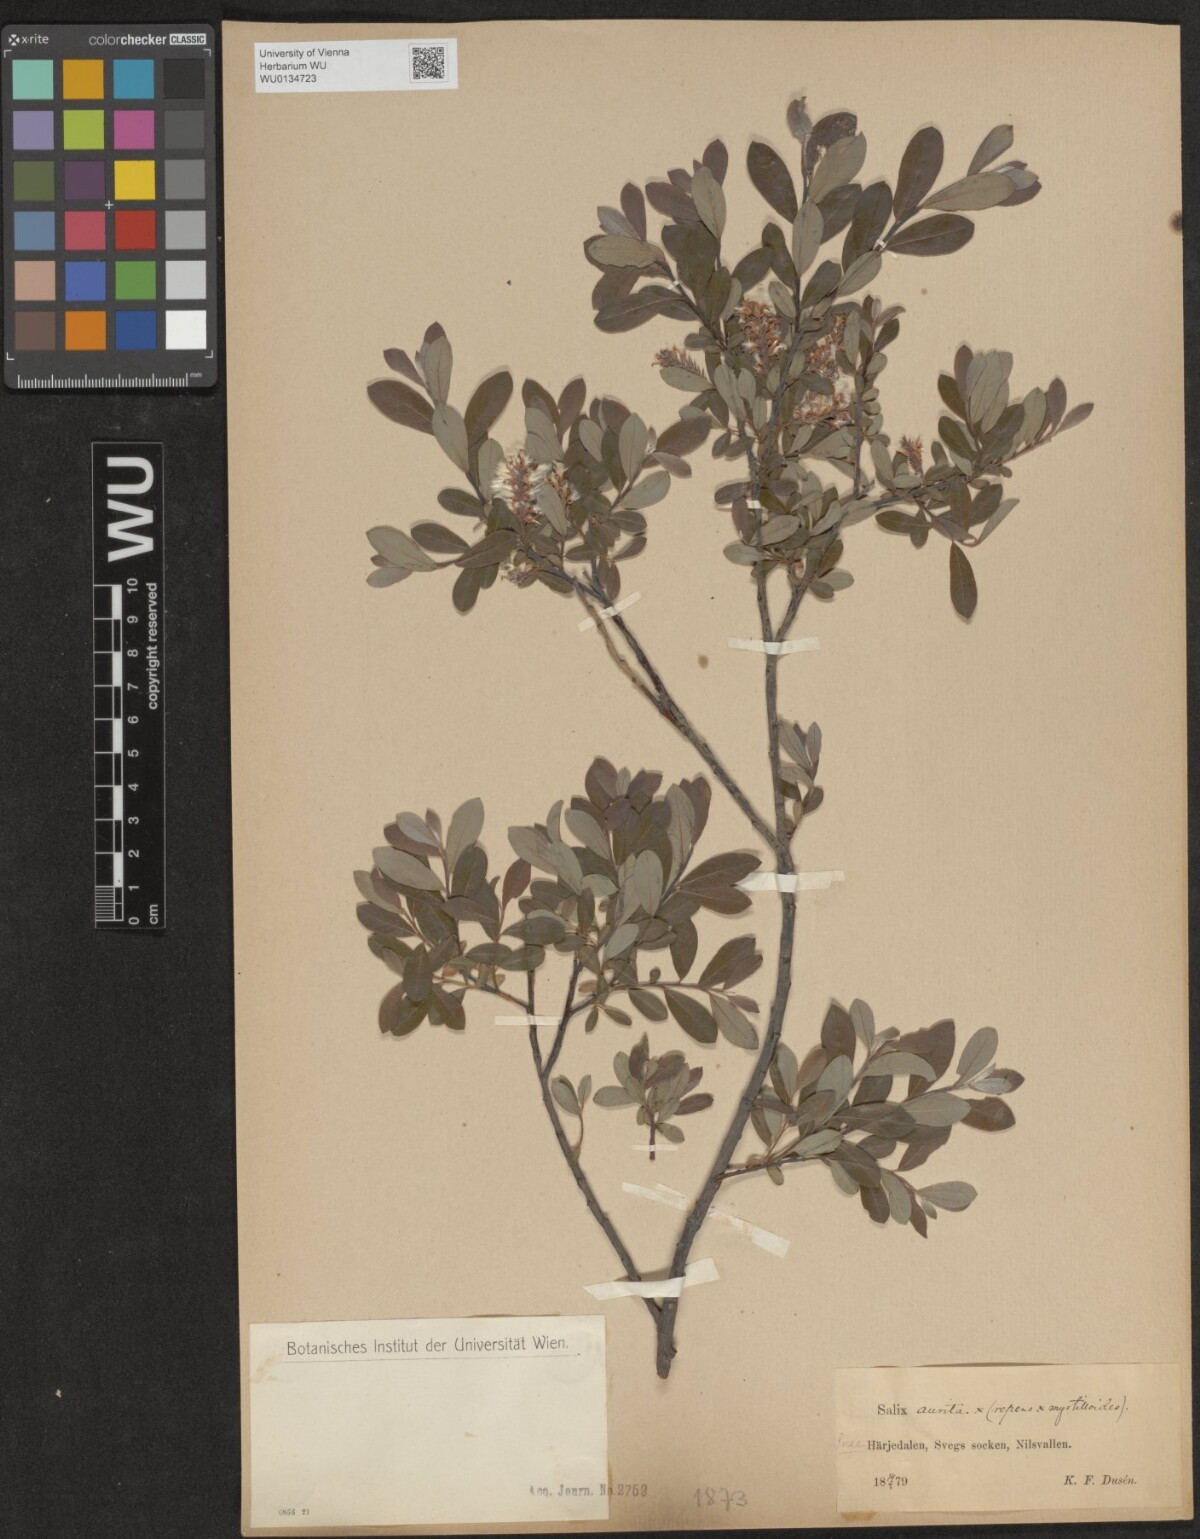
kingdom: Plantae
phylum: Tracheophyta
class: Magnoliopsida
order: Malpighiales
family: Salicaceae
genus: Salix
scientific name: Salix
